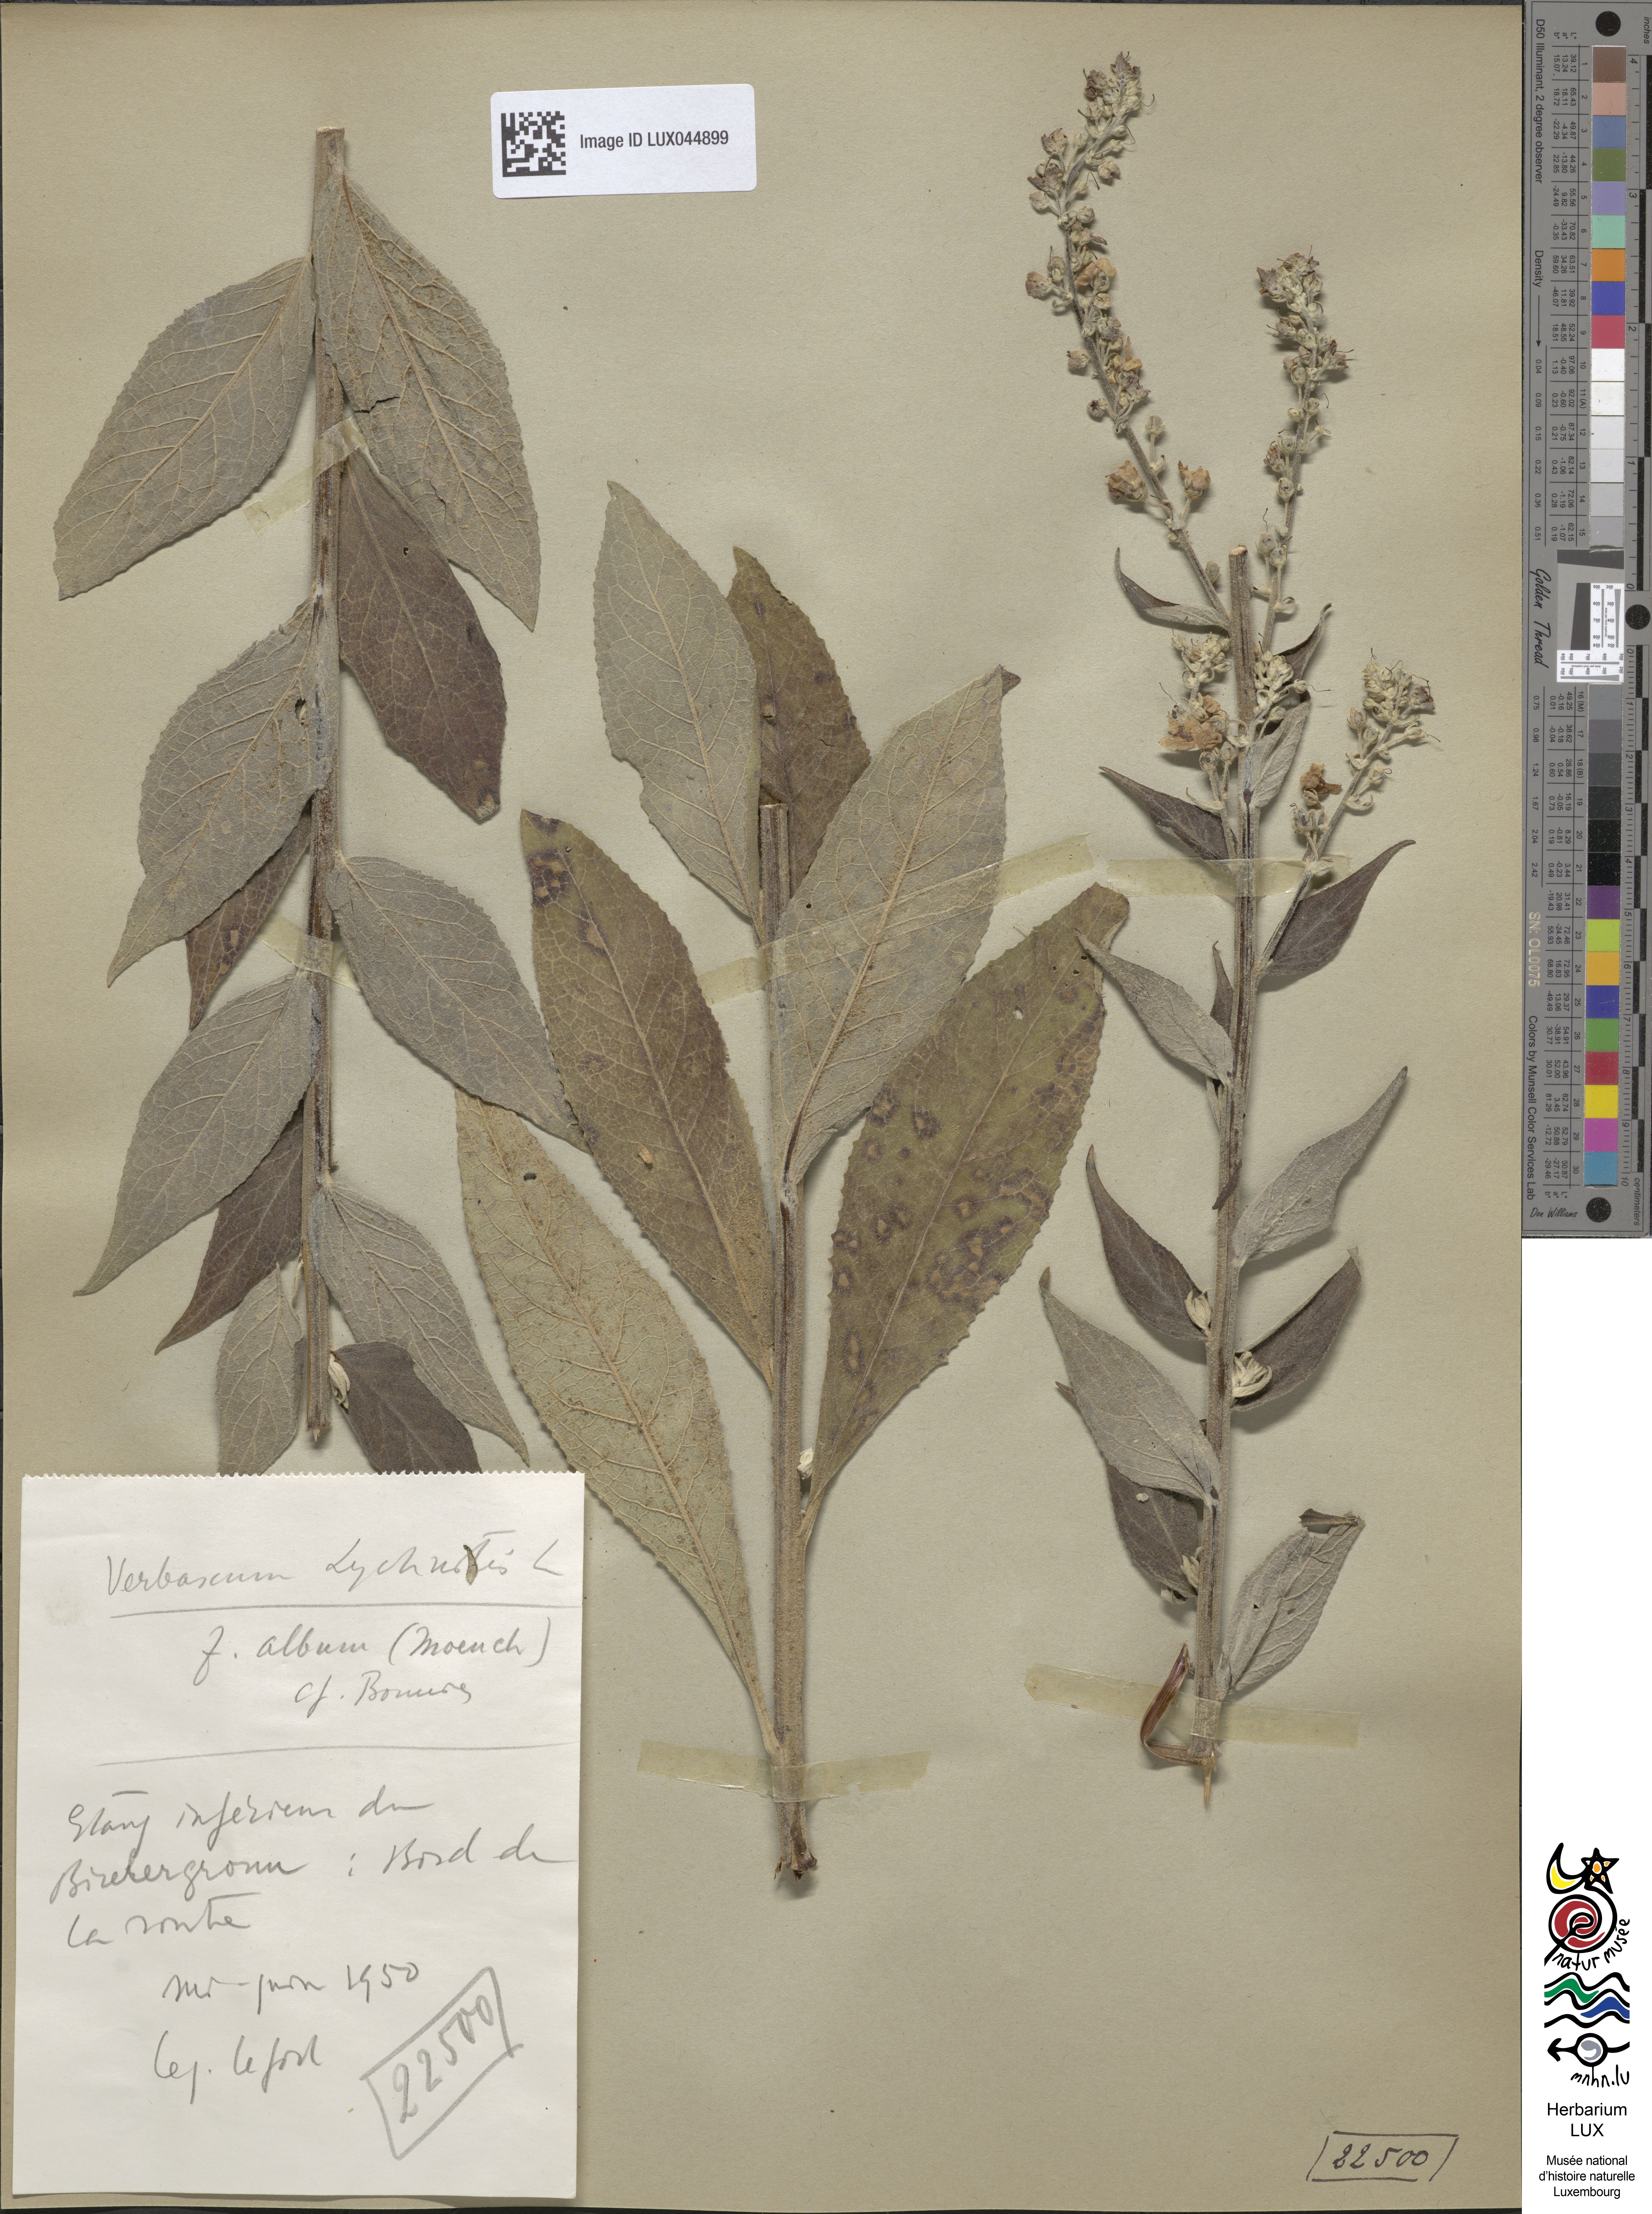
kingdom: Plantae
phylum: Tracheophyta
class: Magnoliopsida
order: Lamiales
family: Scrophulariaceae
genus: Verbascum
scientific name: Verbascum lychnitis
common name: White mullein
